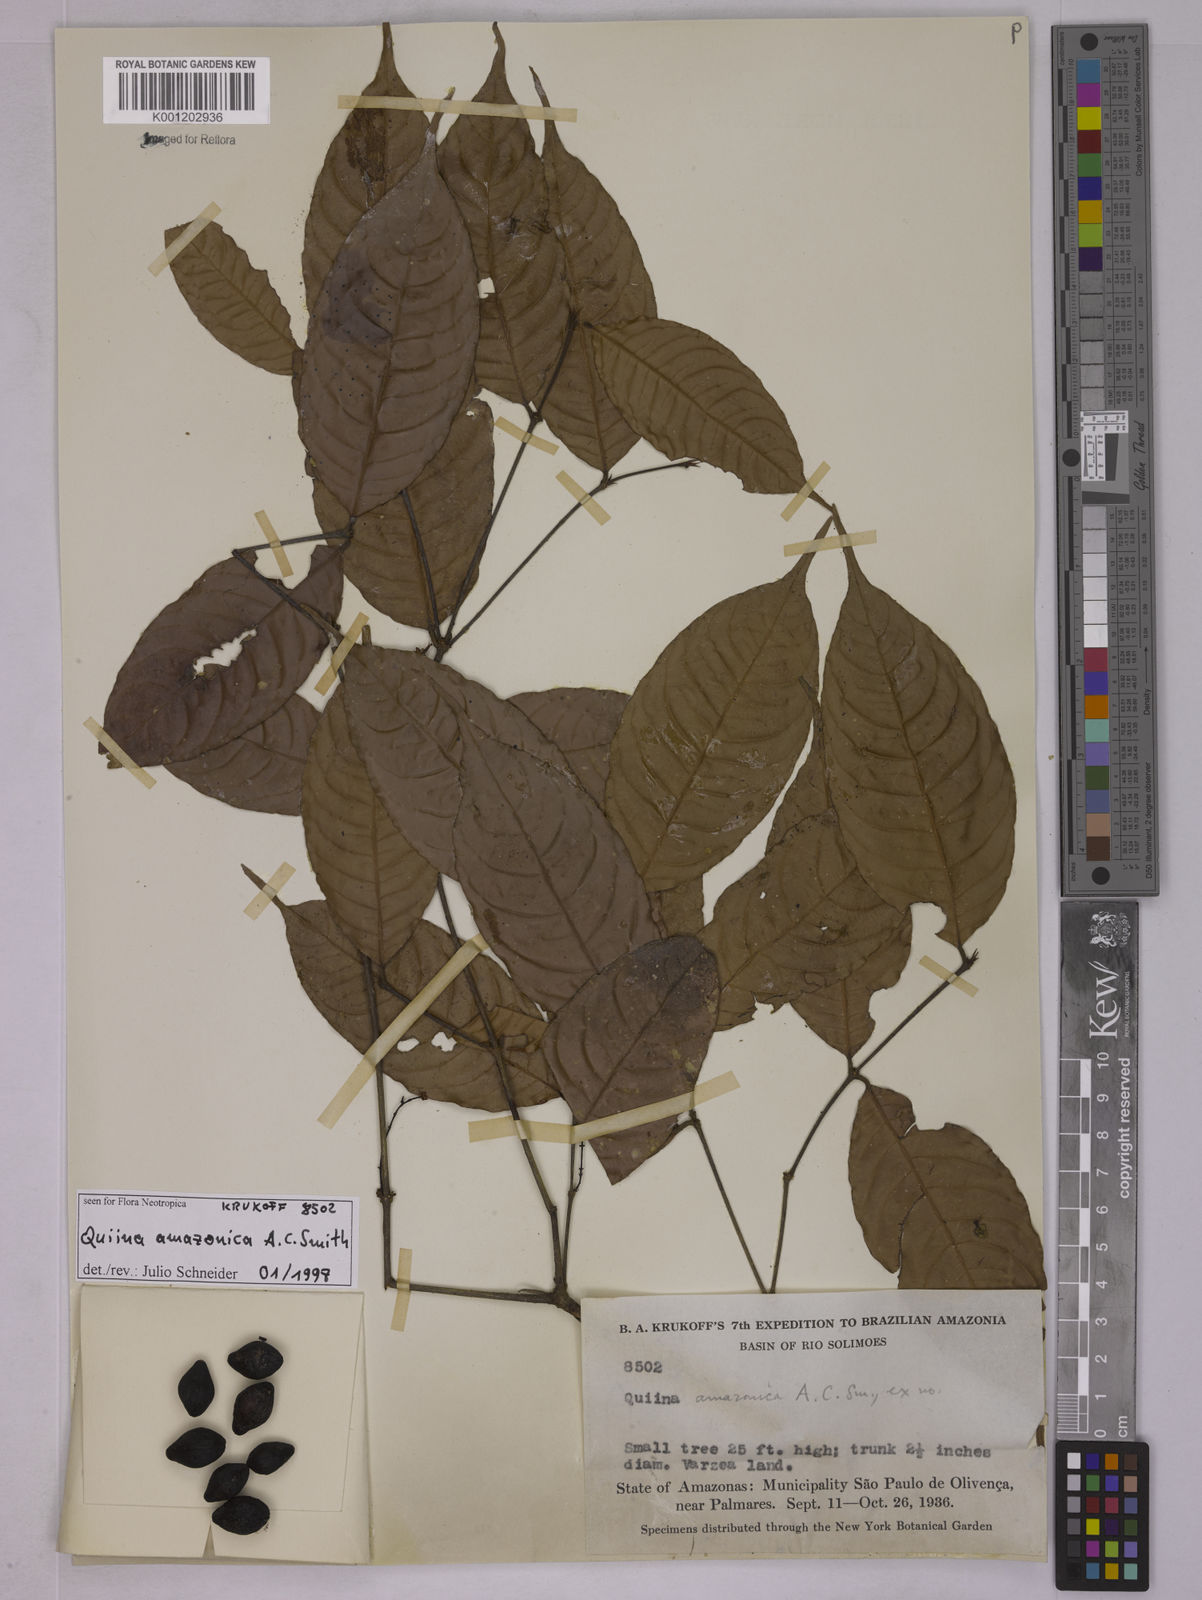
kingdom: Plantae
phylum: Tracheophyta
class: Magnoliopsida
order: Malpighiales
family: Quiinaceae
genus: Quiina
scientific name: Quiina amazonica
